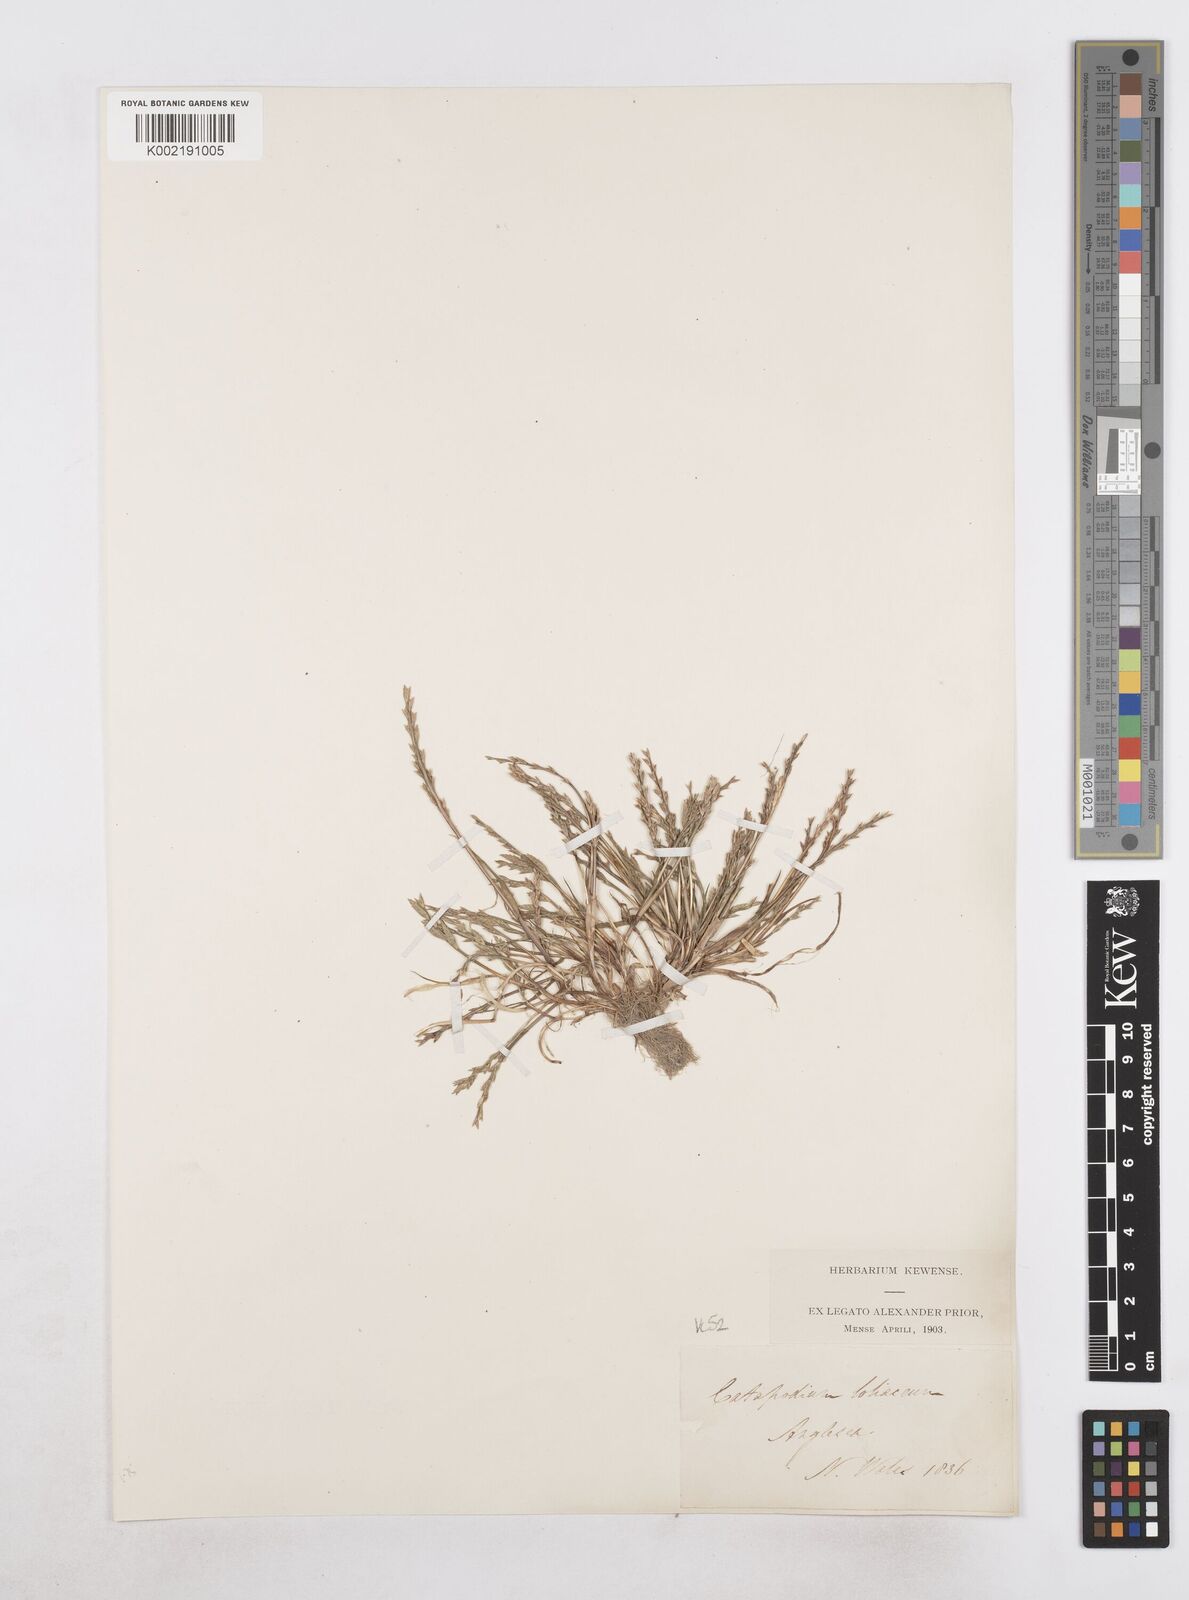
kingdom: Plantae
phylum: Tracheophyta
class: Liliopsida
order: Poales
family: Poaceae
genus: Catapodium
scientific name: Catapodium marinum
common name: Sea fern-grass
